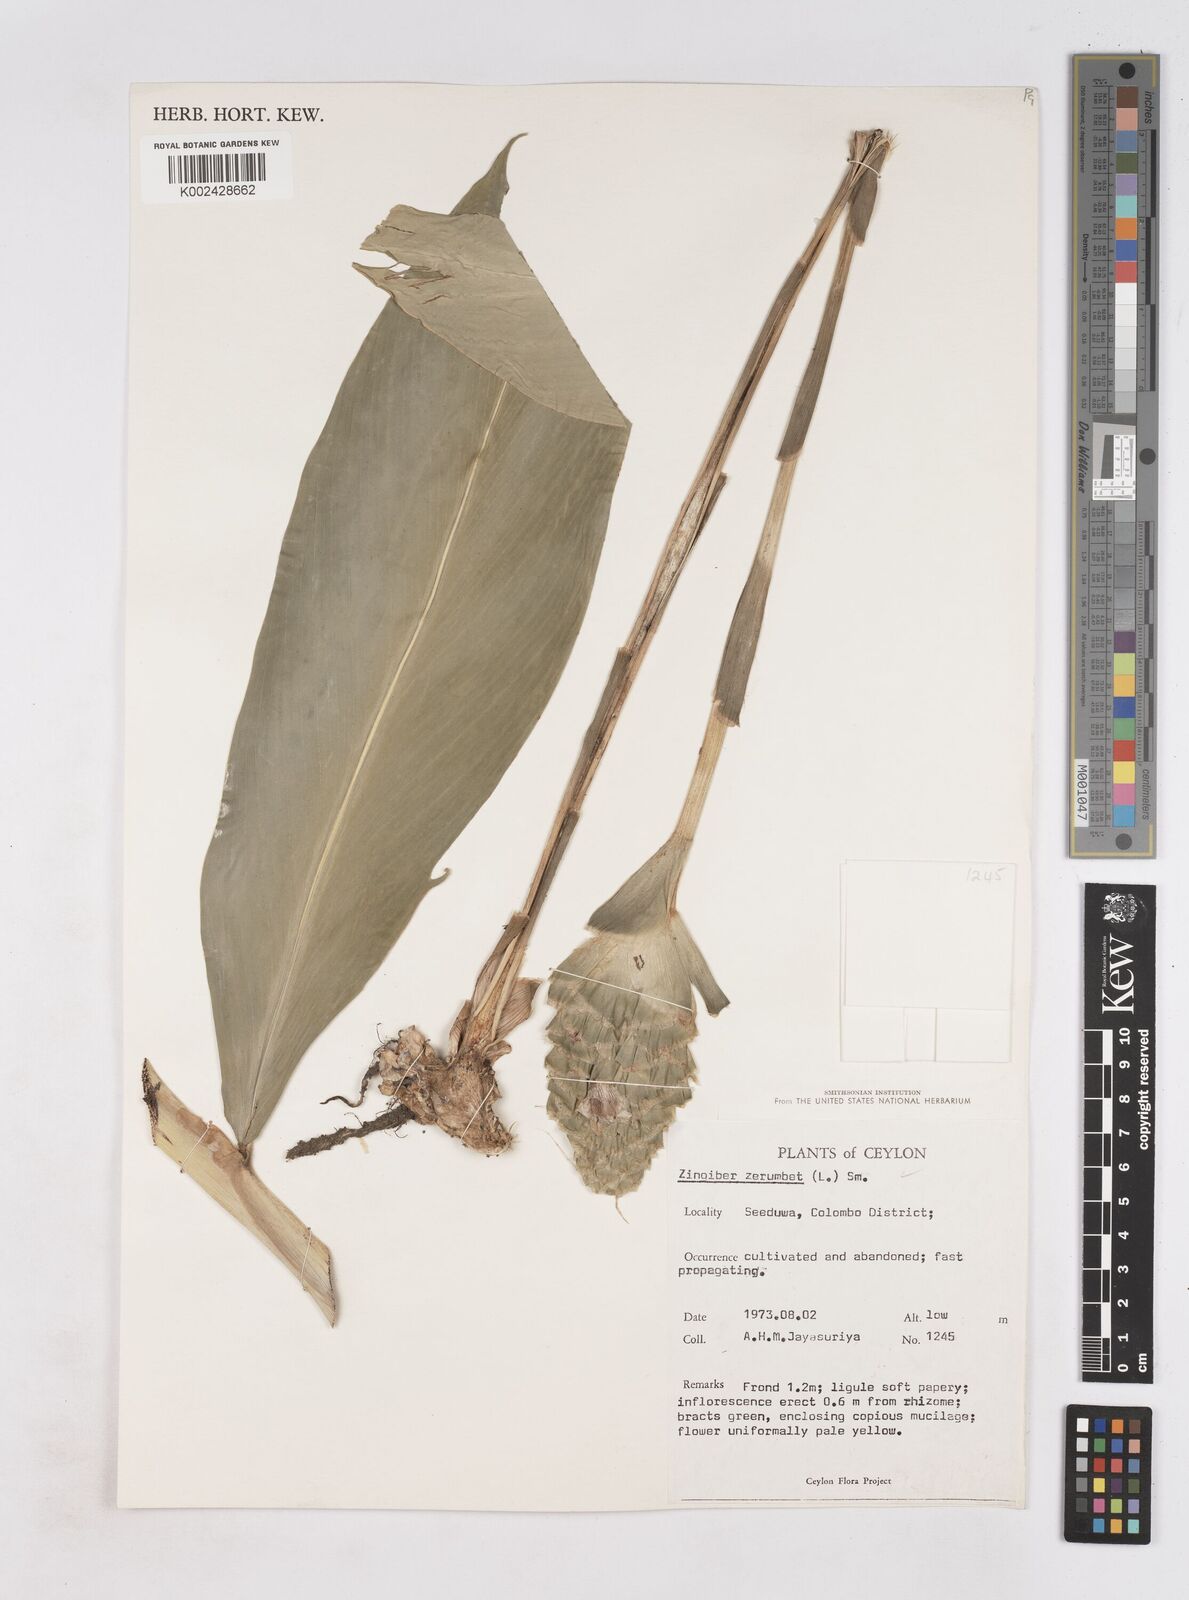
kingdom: Plantae
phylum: Tracheophyta
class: Liliopsida
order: Zingiberales
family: Zingiberaceae
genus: Zingiber
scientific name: Zingiber zerumbet
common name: Bitter ginger
